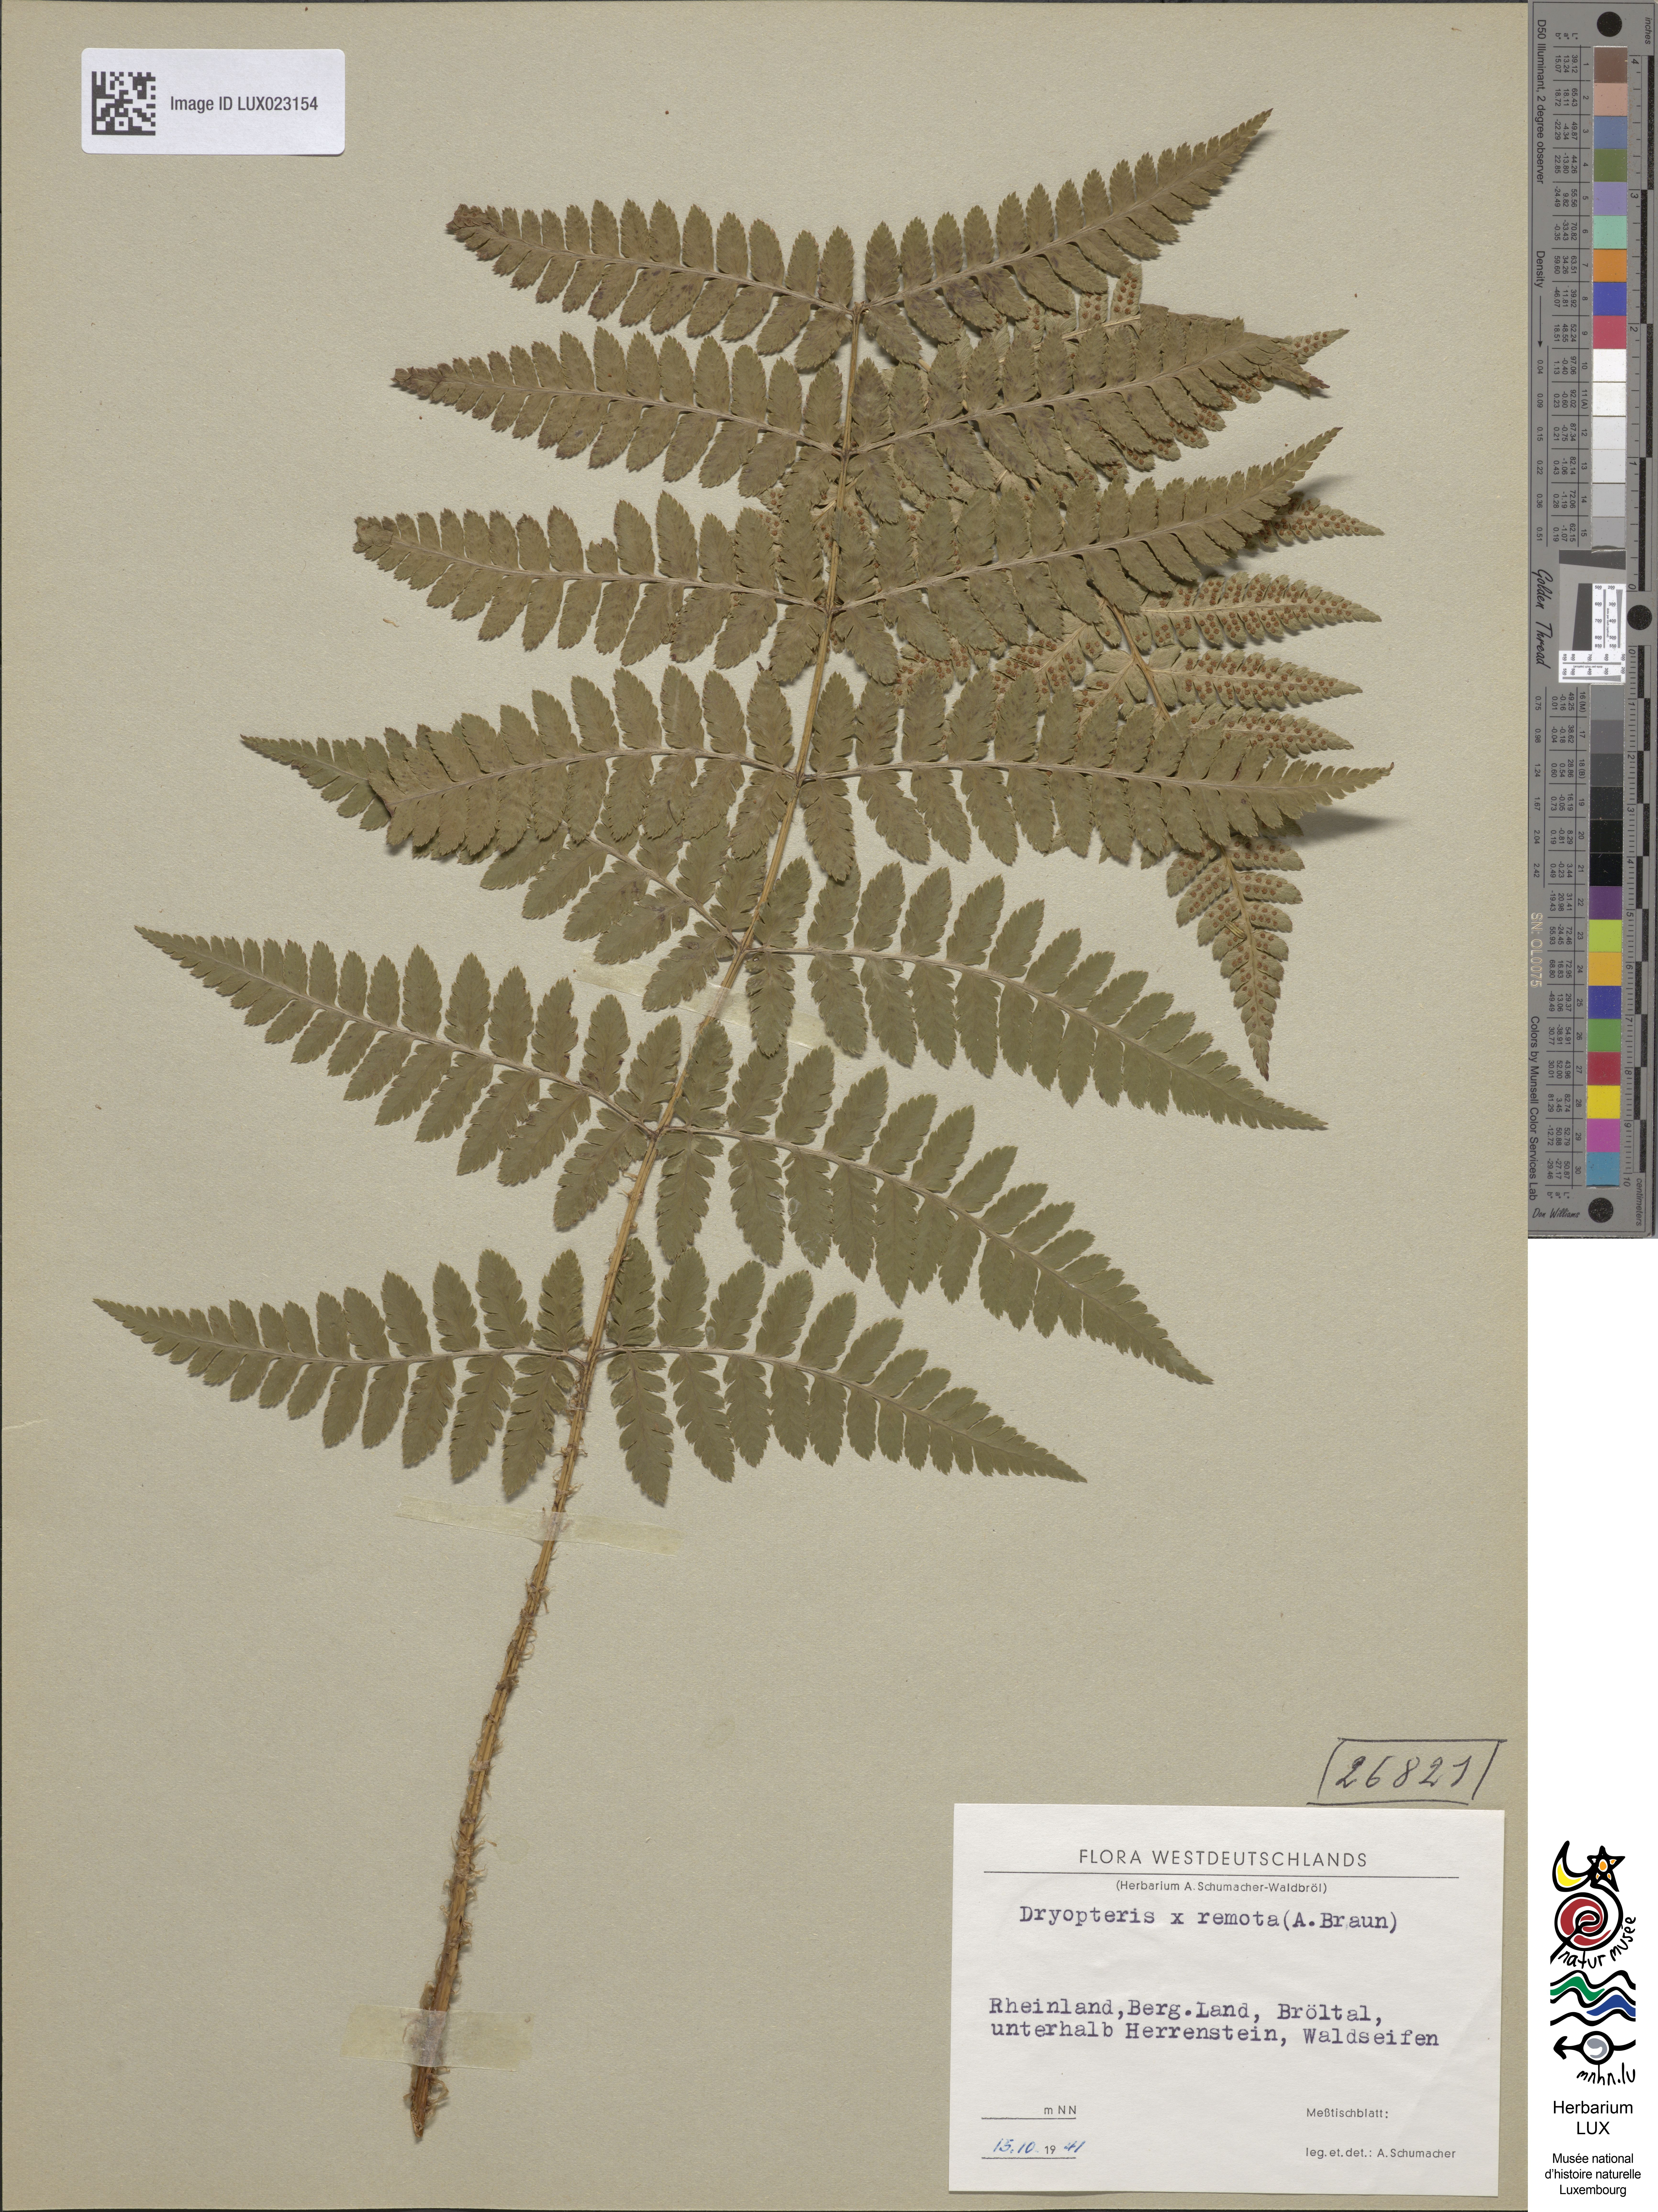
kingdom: Plantae
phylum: Tracheophyta
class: Polypodiopsida
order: Polypodiales
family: Dryopteridaceae
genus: Dryopteris
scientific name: Dryopteris remota
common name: Scaly buckler-fern
